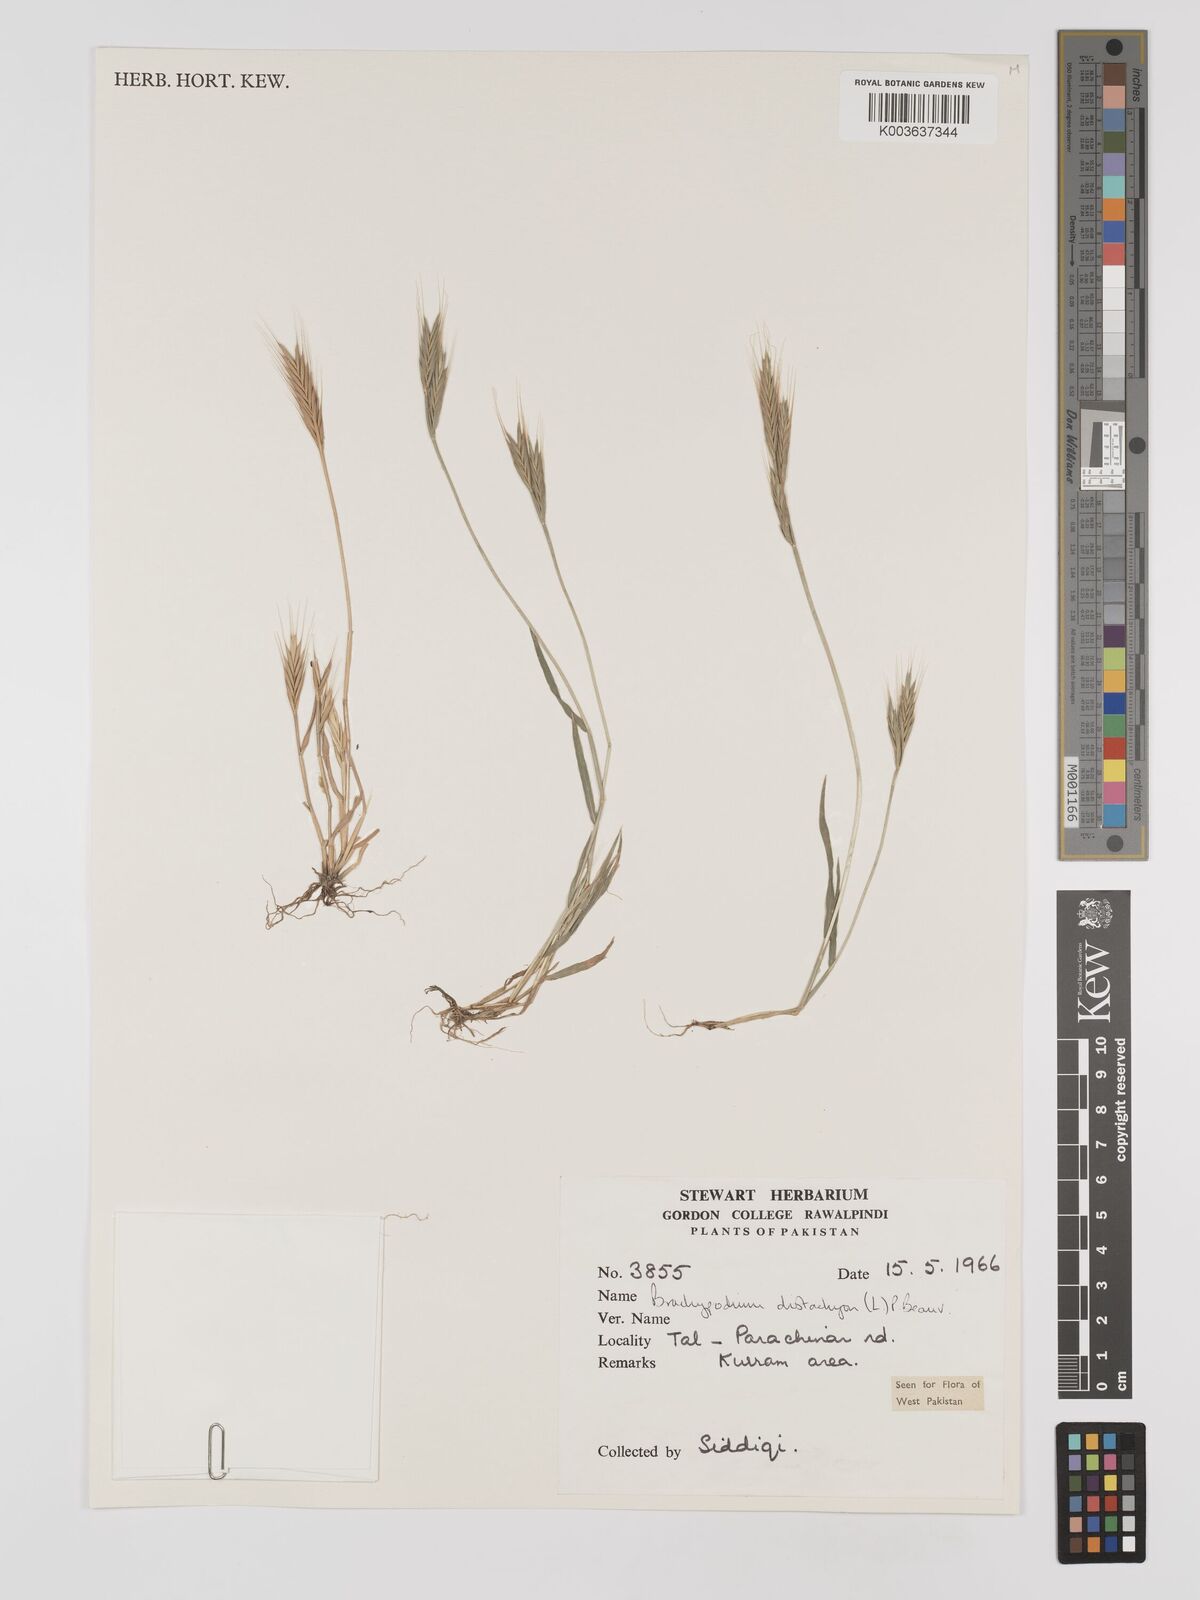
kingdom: Plantae
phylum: Tracheophyta
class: Liliopsida
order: Poales
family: Poaceae
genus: Brachypodium
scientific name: Brachypodium distachyon
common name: Stiff brome
